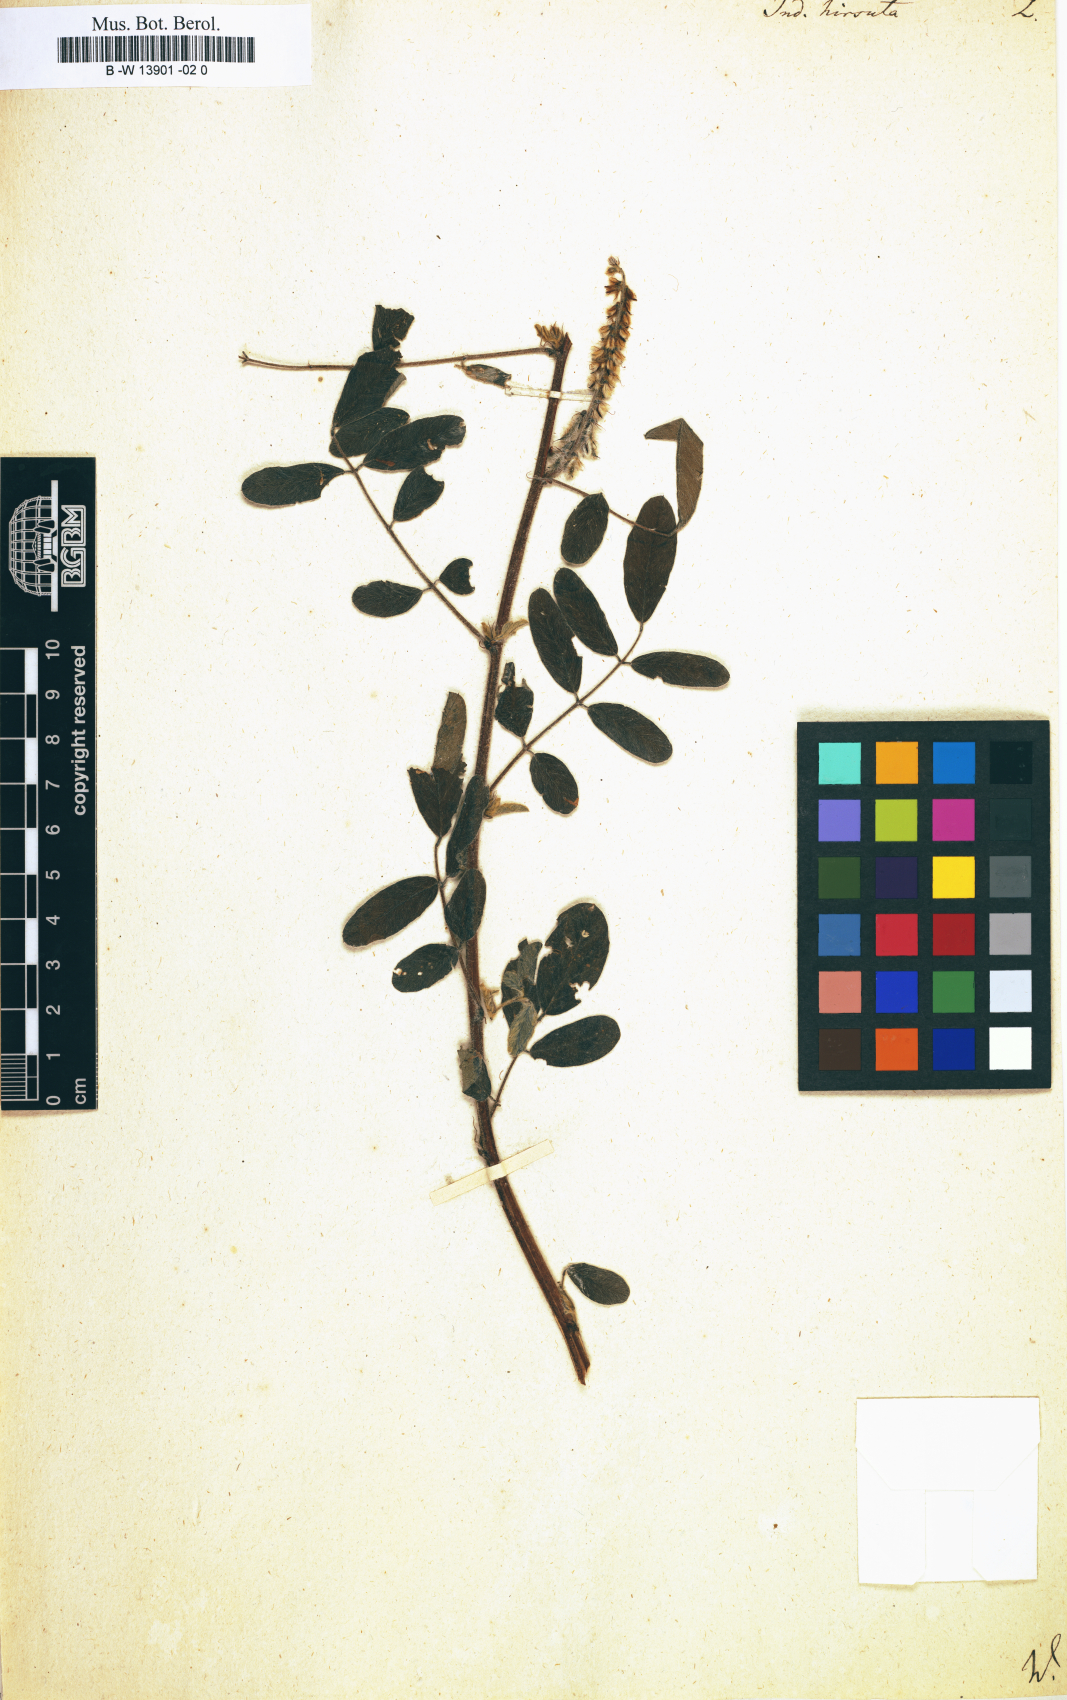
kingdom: Plantae
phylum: Tracheophyta
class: Magnoliopsida
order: Fabales
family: Fabaceae
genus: Indigofera
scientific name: Indigofera hirsuta
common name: Hairy indigo
